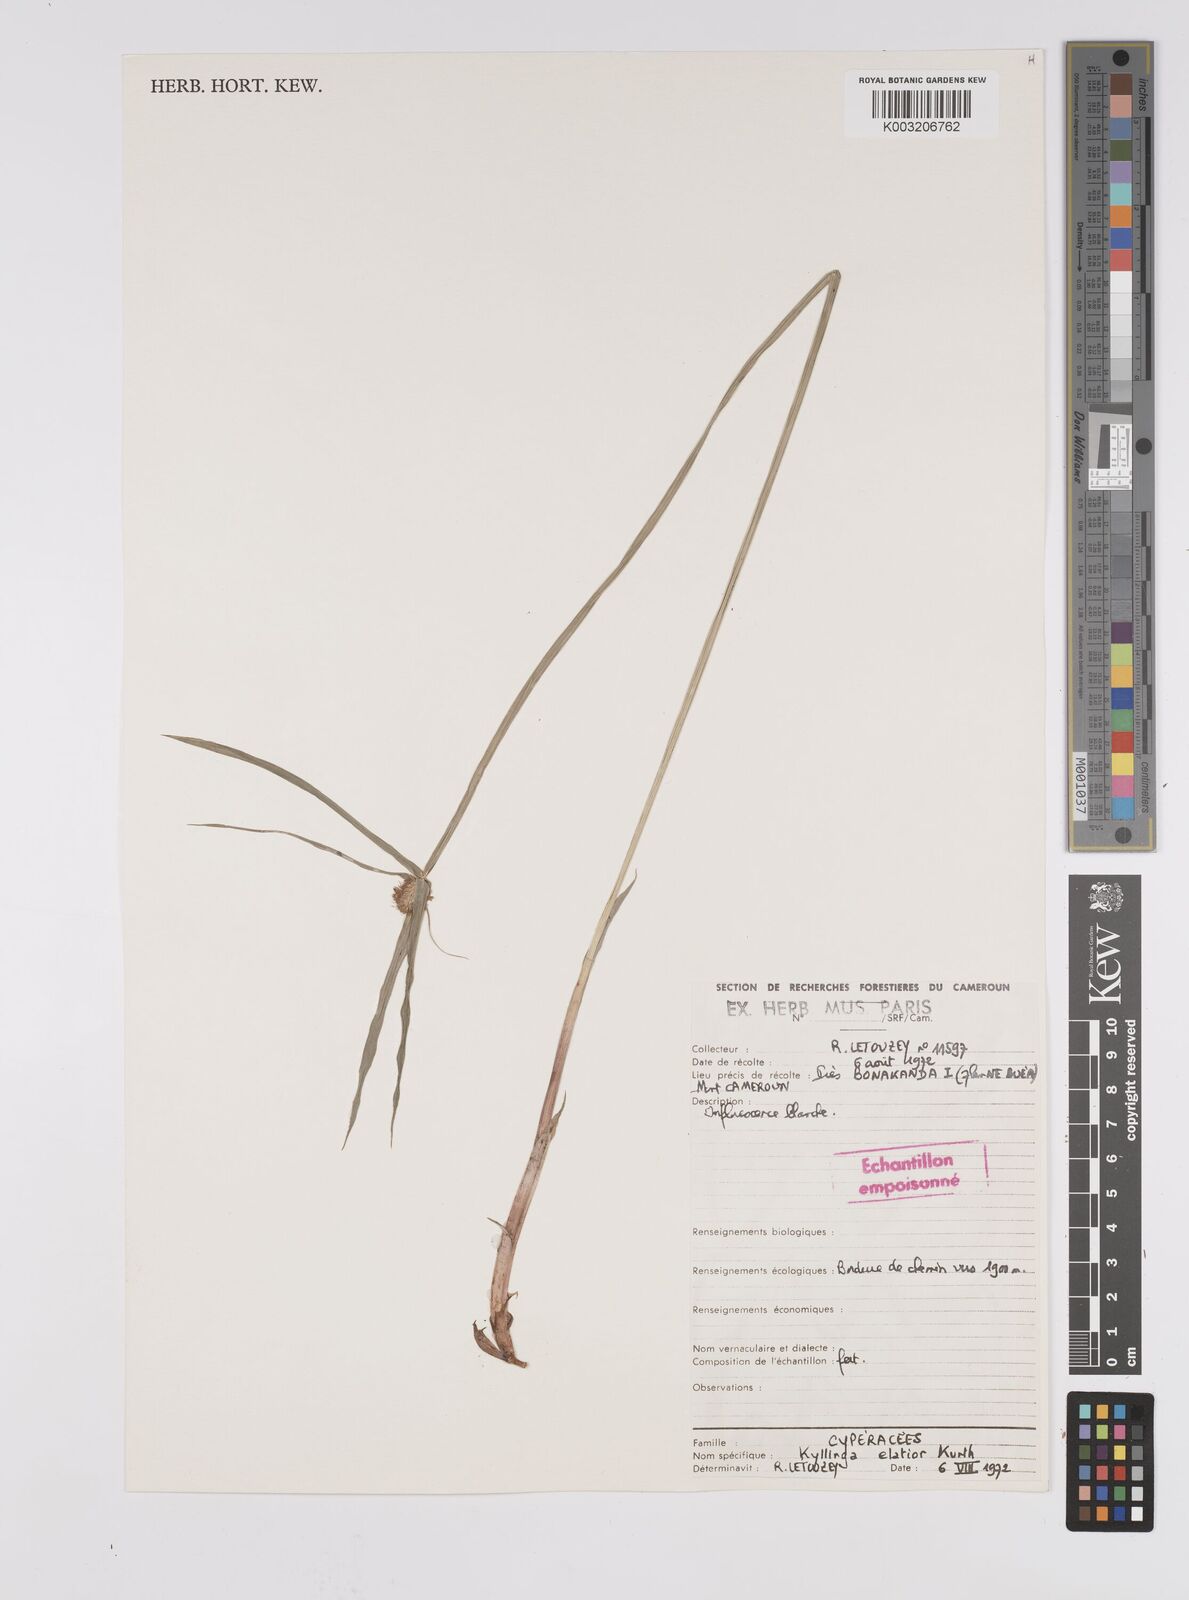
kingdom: Plantae
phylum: Tracheophyta
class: Liliopsida
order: Poales
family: Cyperaceae
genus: Cyperus
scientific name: Cyperus
